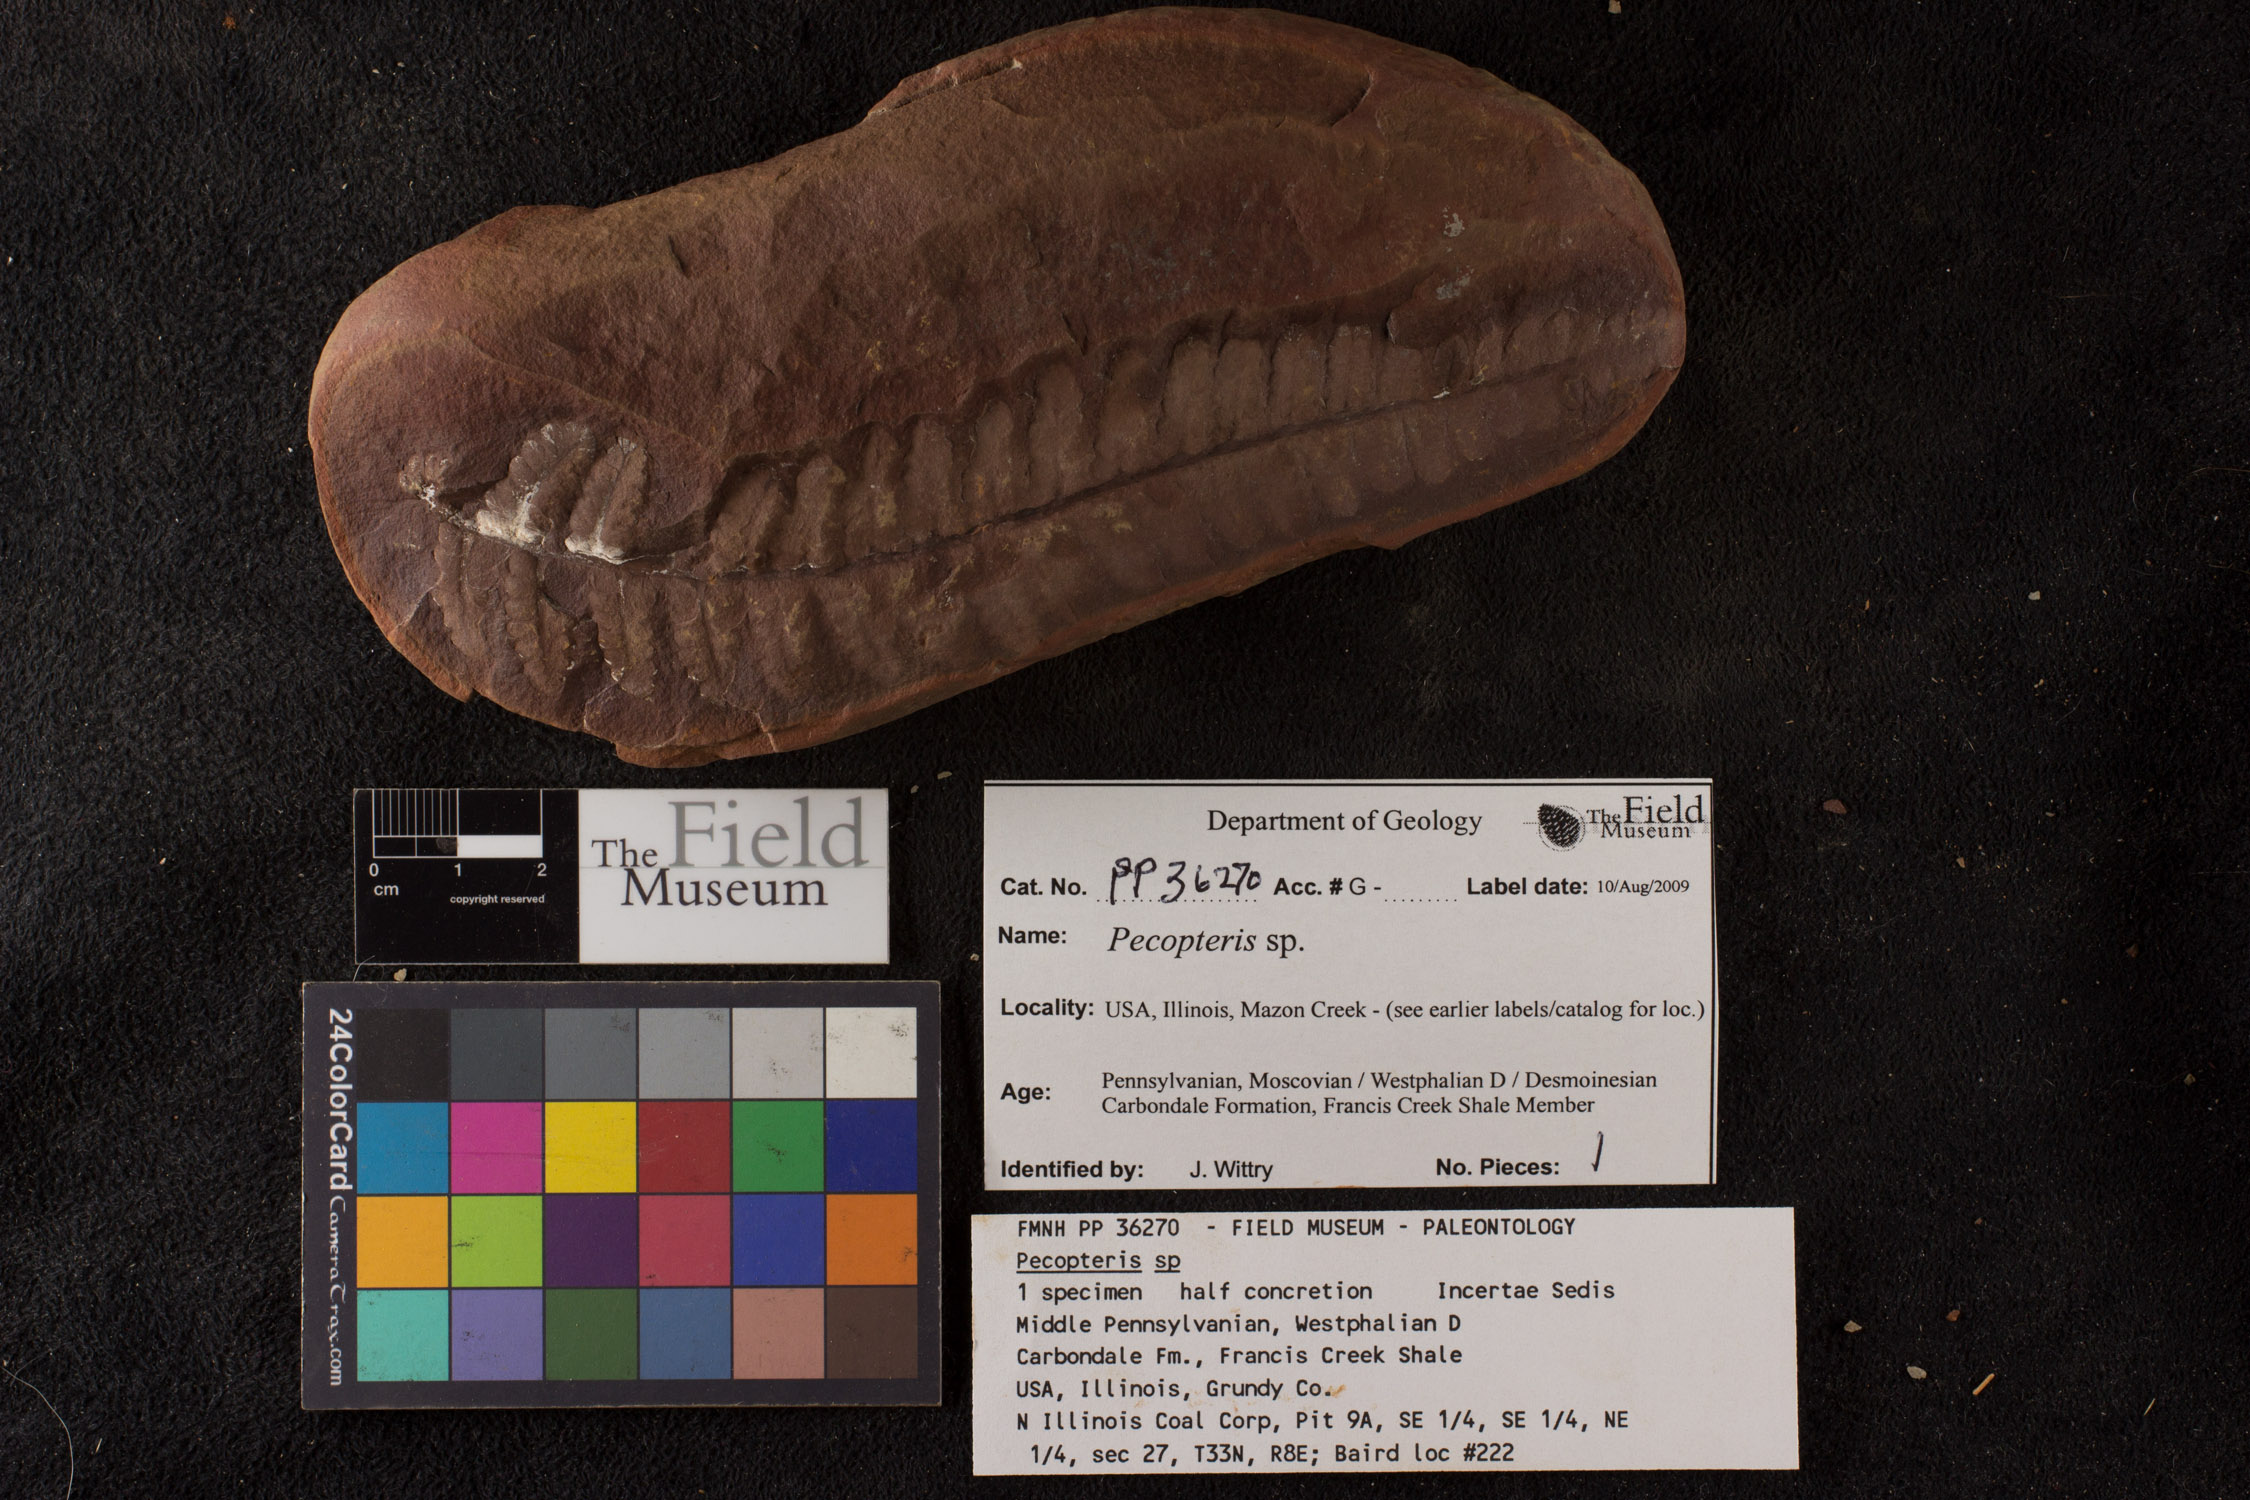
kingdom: Plantae
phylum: Tracheophyta
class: Polypodiopsida
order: Marattiales
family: Asterothecaceae
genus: Pecopteris
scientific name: Pecopteris
